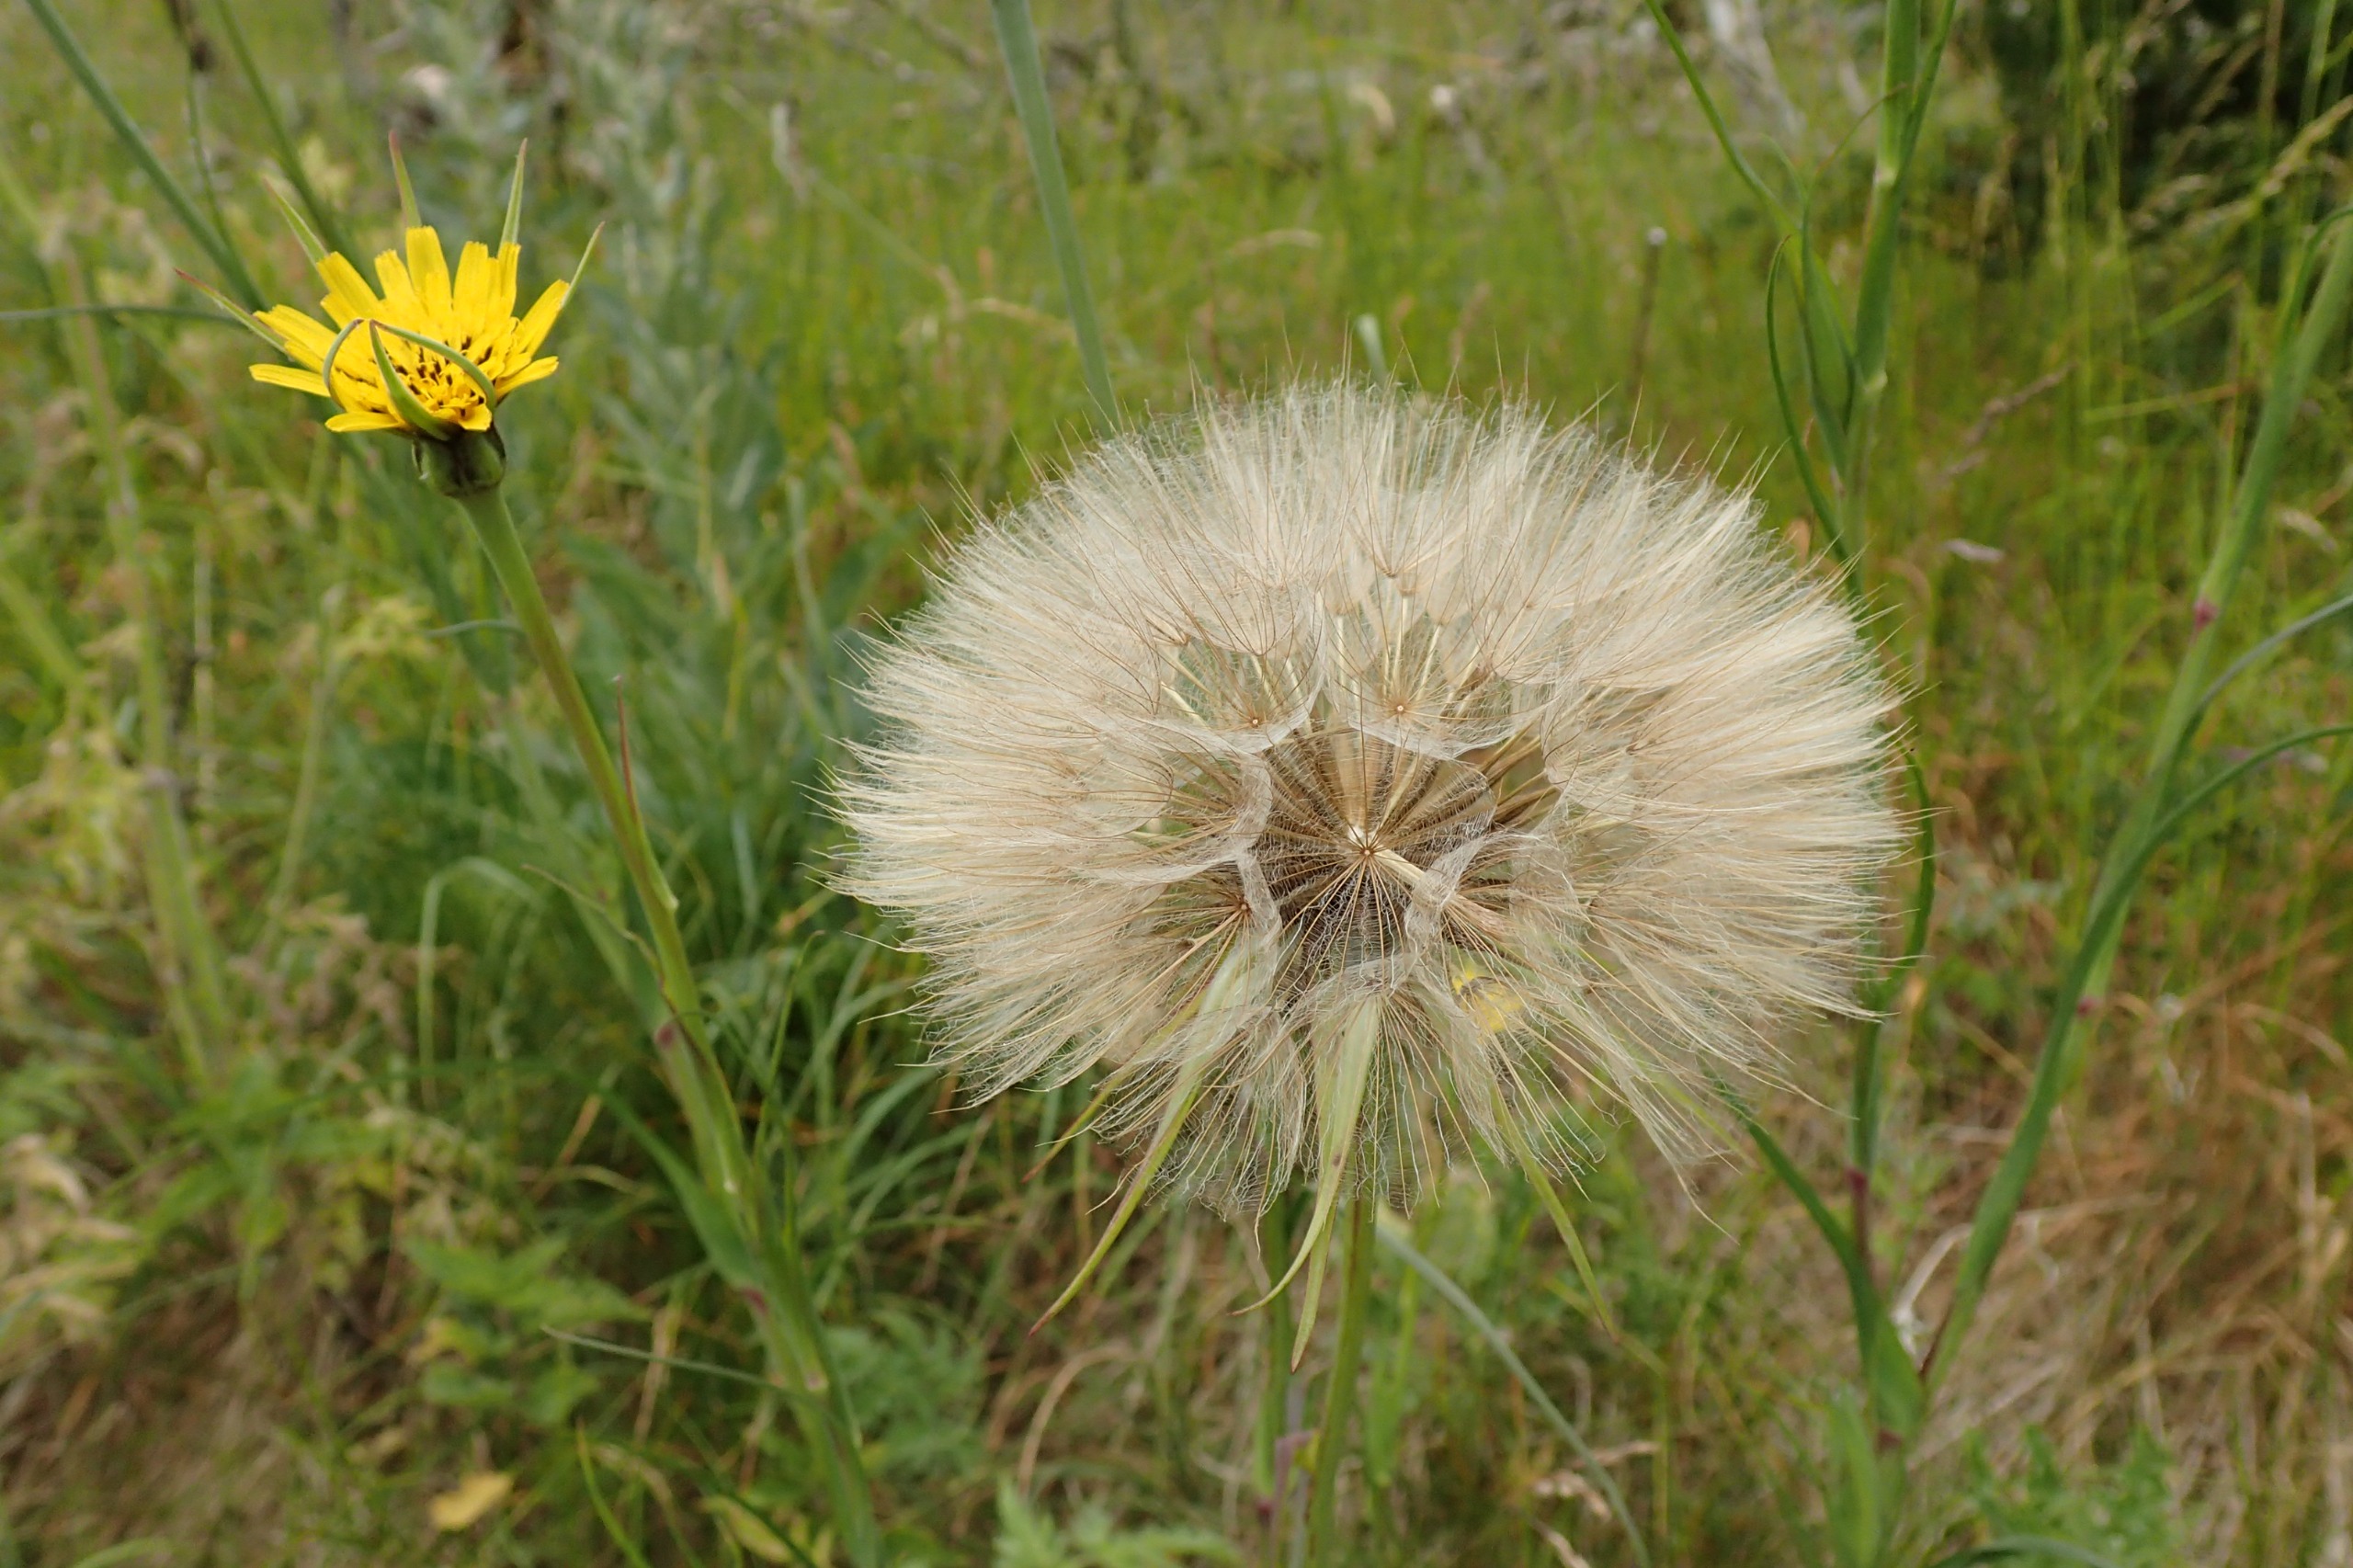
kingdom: Plantae
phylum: Tracheophyta
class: Magnoliopsida
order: Asterales
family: Asteraceae
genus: Tragopogon
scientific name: Tragopogon minor
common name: Småkronet gedeskæg
